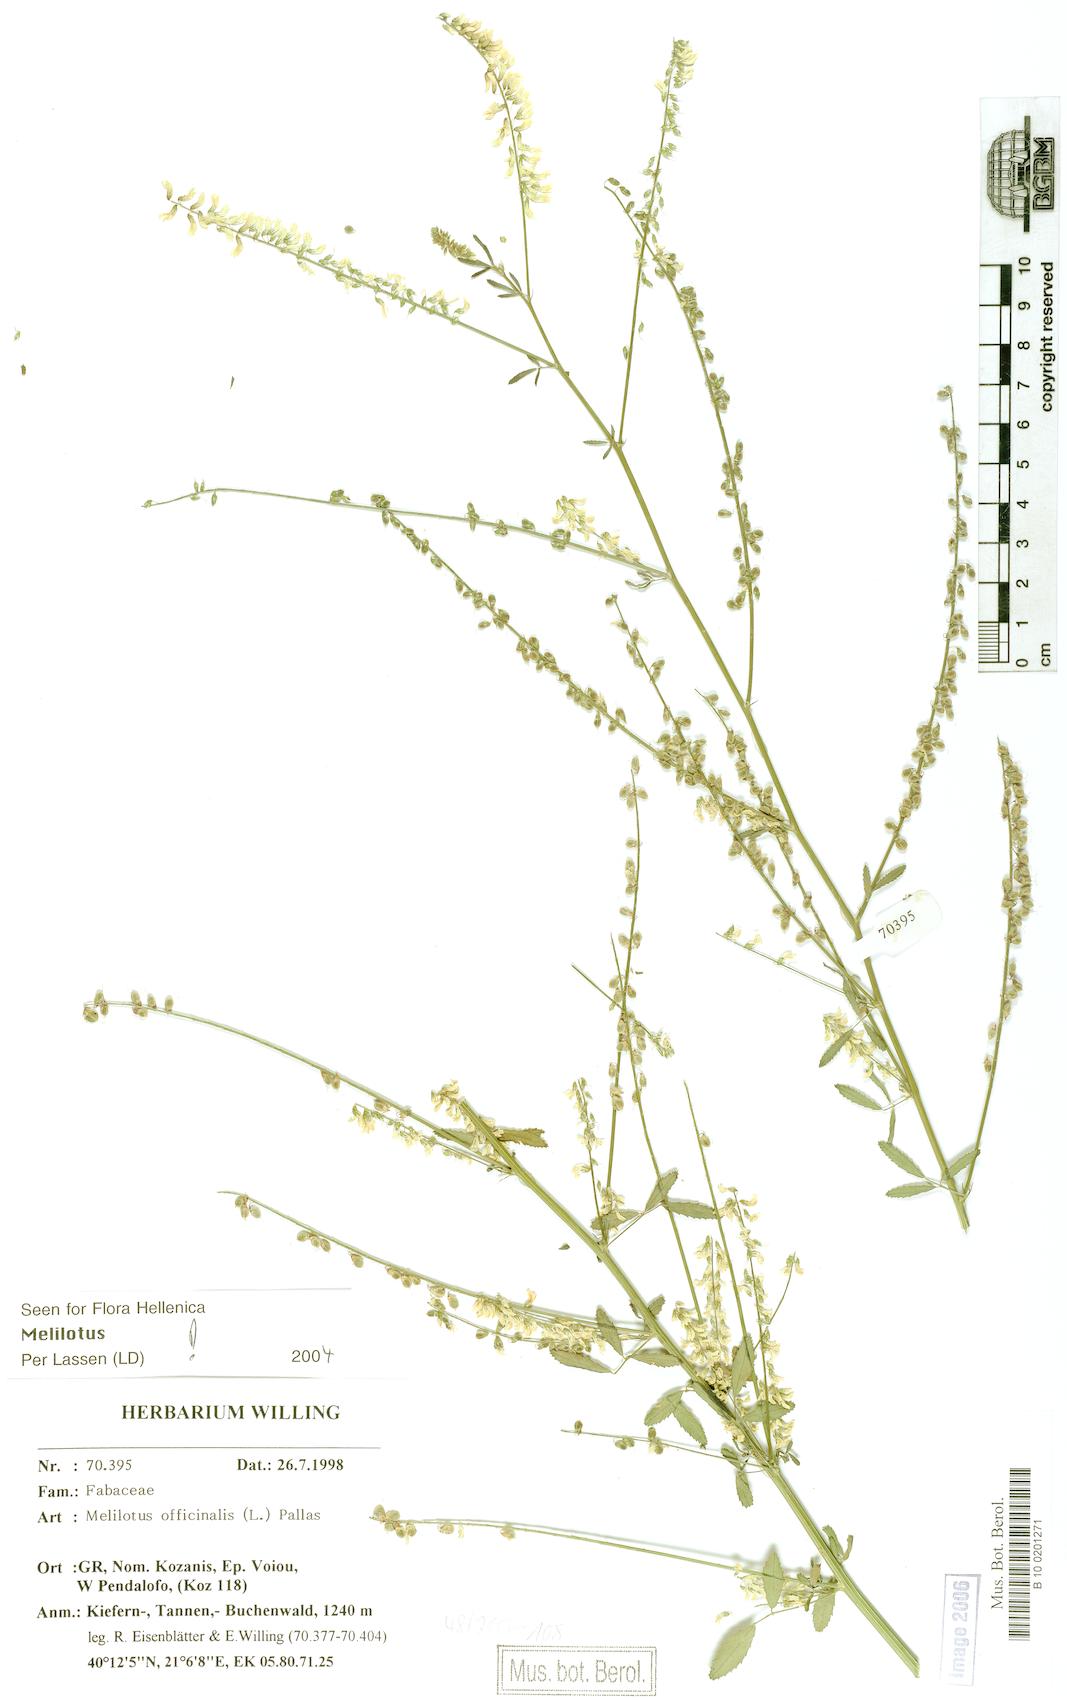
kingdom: Plantae
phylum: Tracheophyta
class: Magnoliopsida
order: Fabales
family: Fabaceae
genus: Melilotus
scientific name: Melilotus officinalis
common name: Sweetclover
